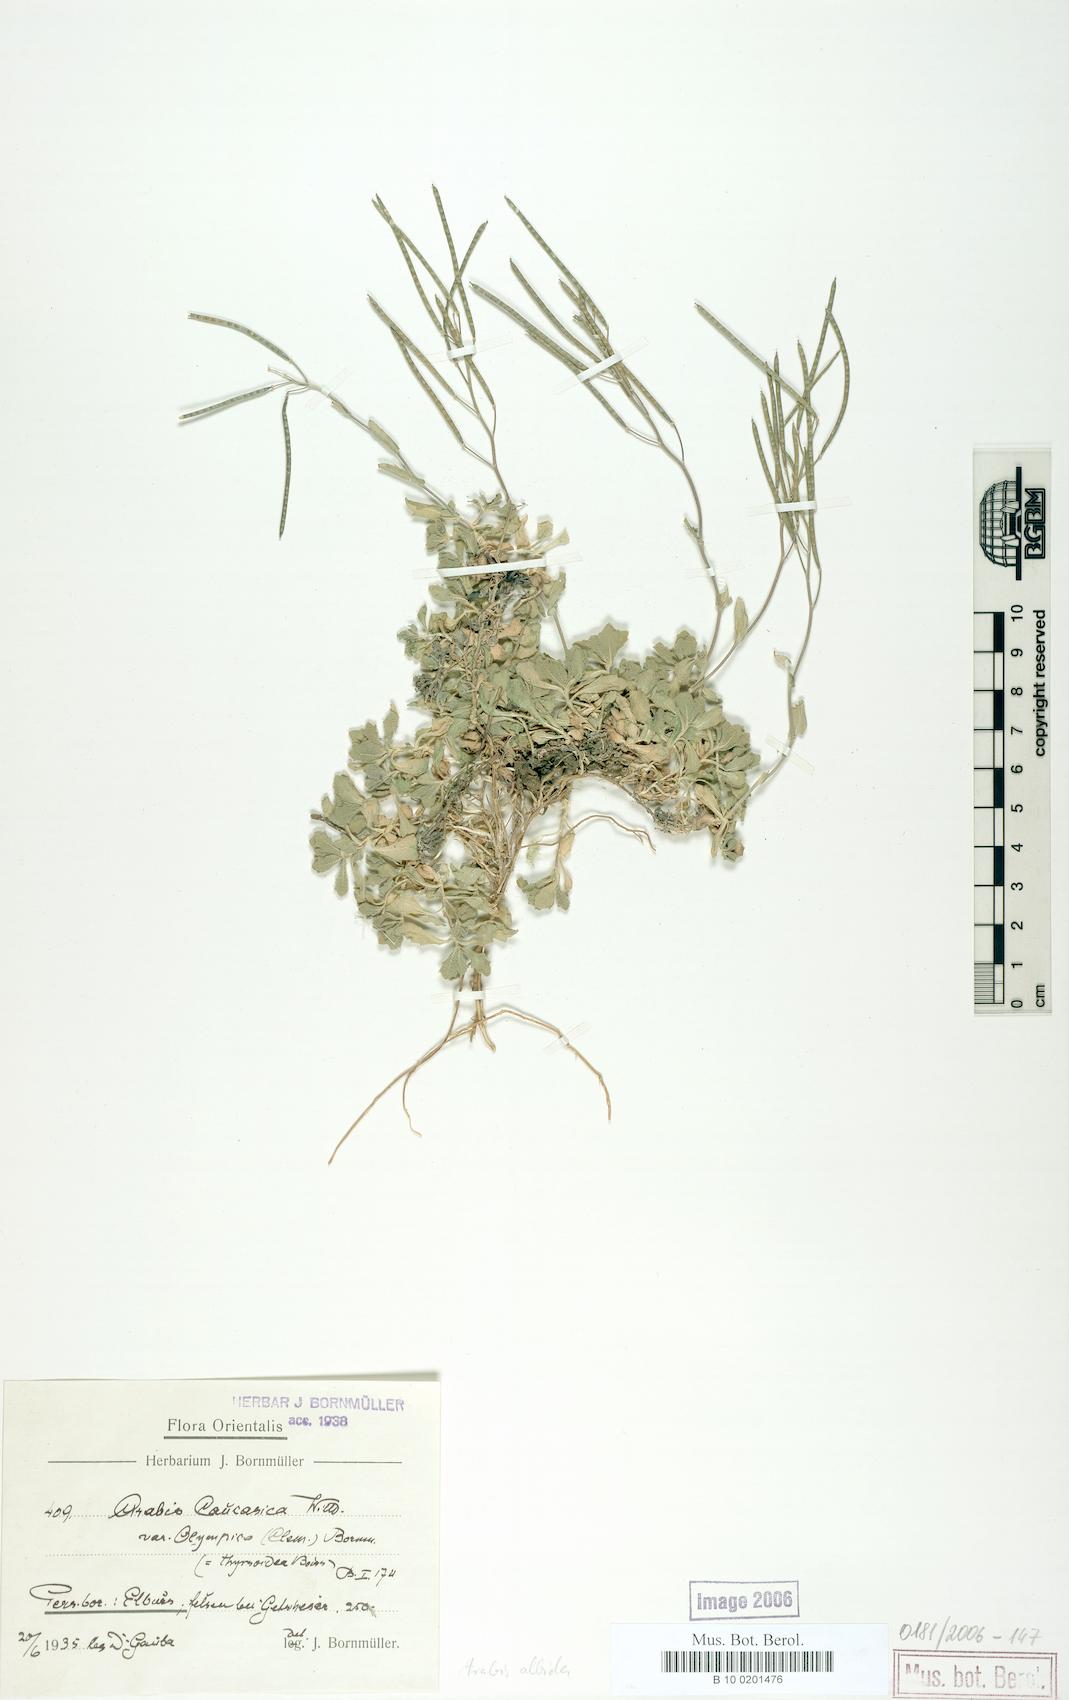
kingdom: Plantae
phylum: Tracheophyta
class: Magnoliopsida
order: Brassicales
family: Brassicaceae
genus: Arabis
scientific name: Arabis caucasica
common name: Gray rockcress
